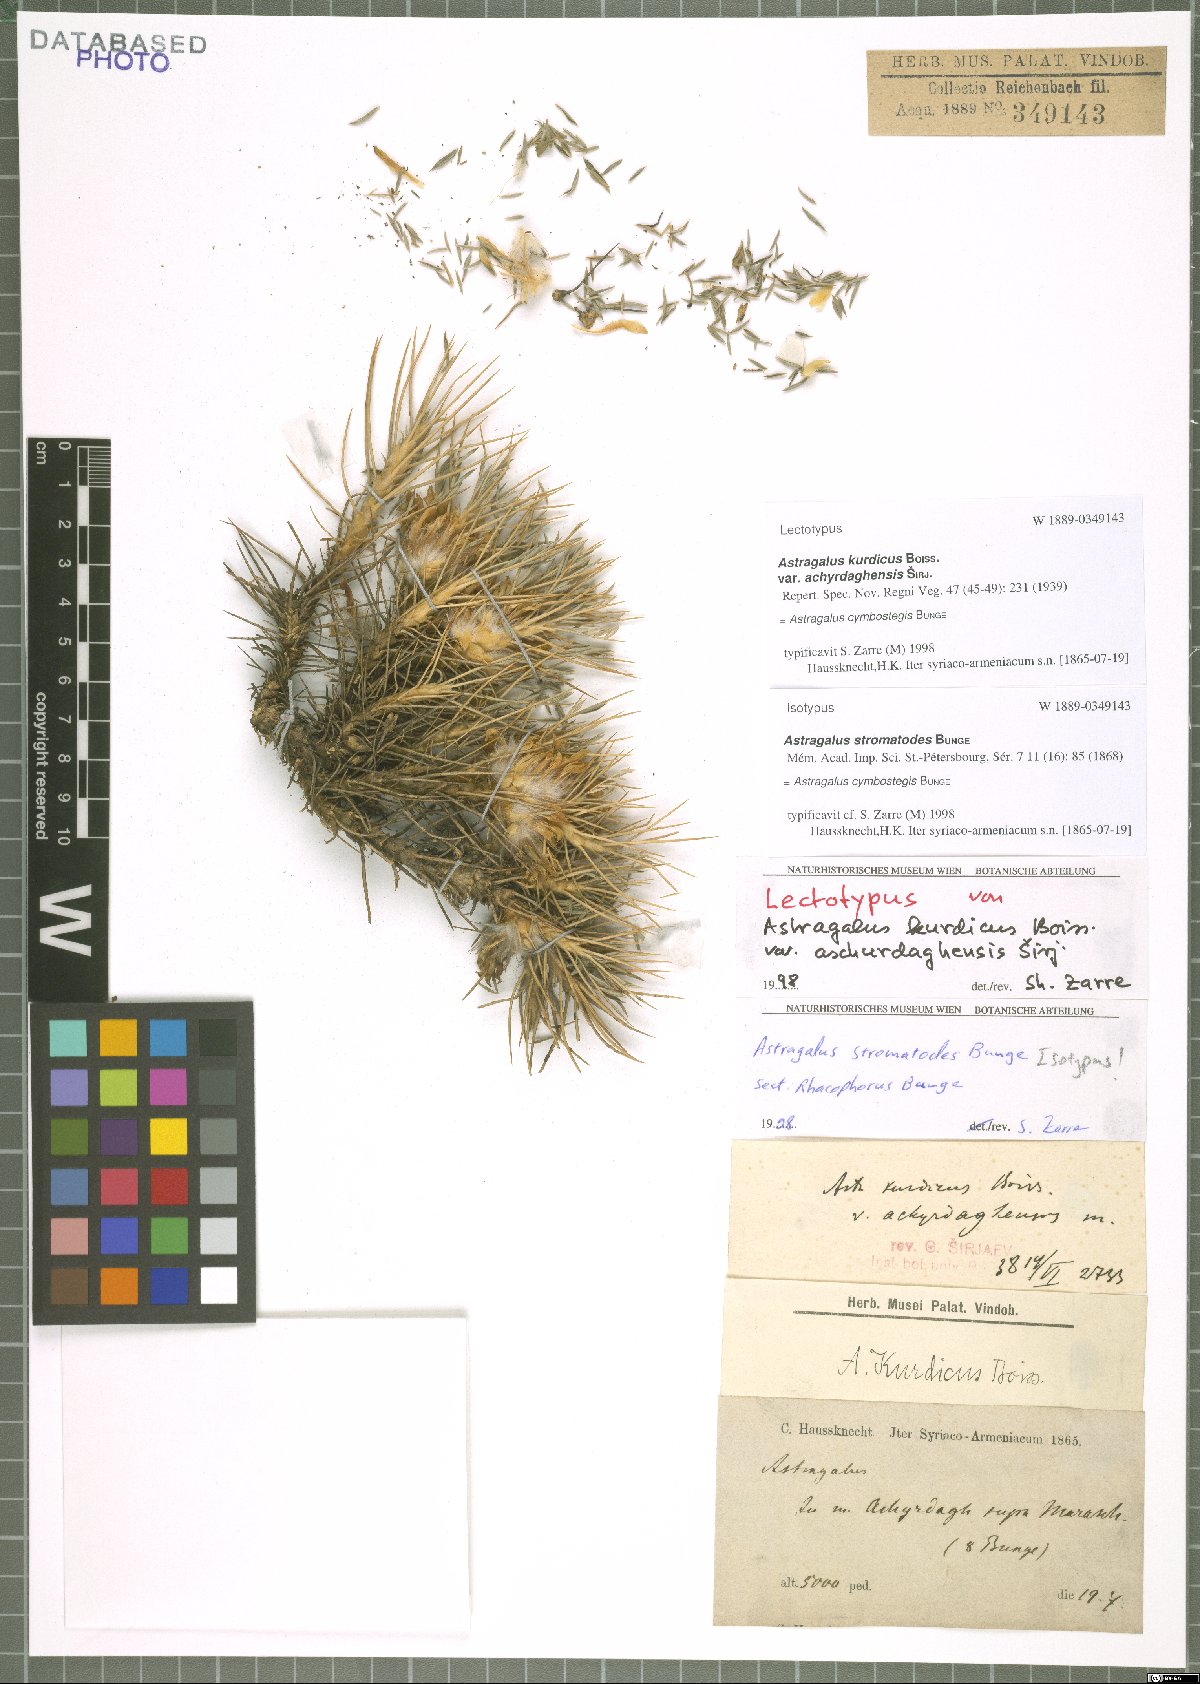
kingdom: Plantae
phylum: Tracheophyta
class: Magnoliopsida
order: Fabales
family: Fabaceae
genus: Astragalus
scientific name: Astragalus cymbostegis
